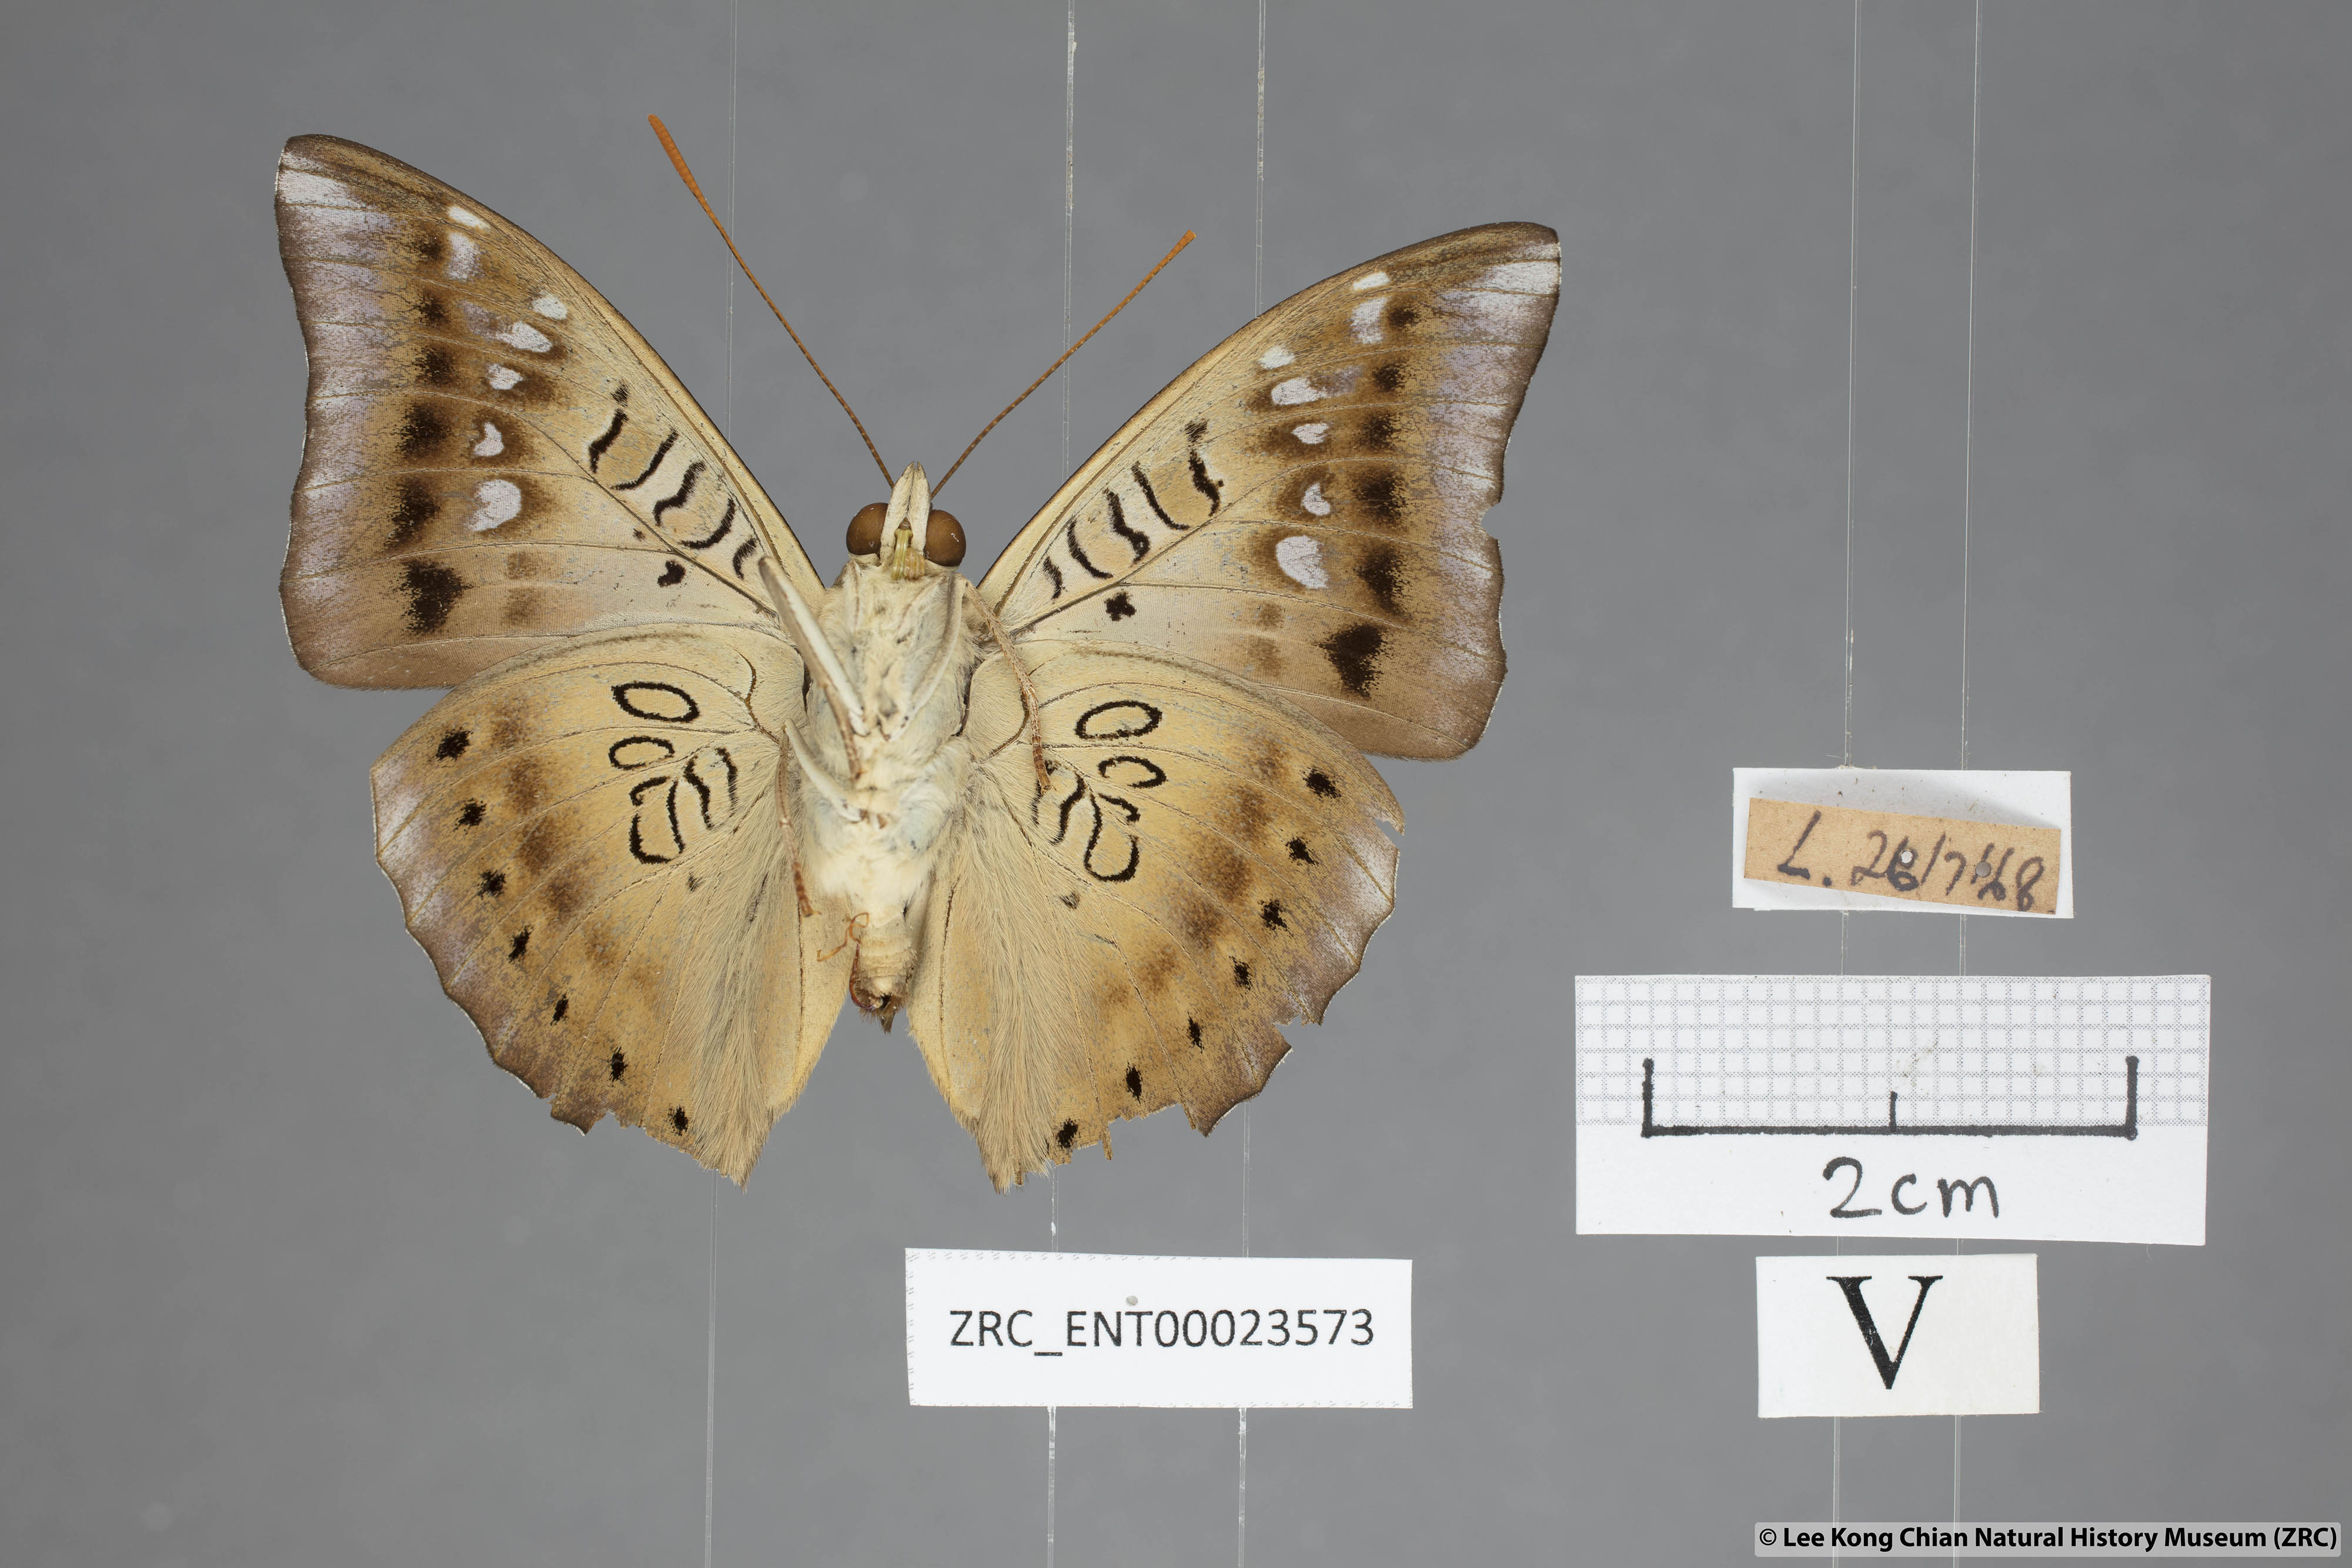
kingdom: Animalia
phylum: Arthropoda
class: Insecta
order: Lepidoptera
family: Nymphalidae
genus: Euthalia
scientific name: Euthalia aconthea
